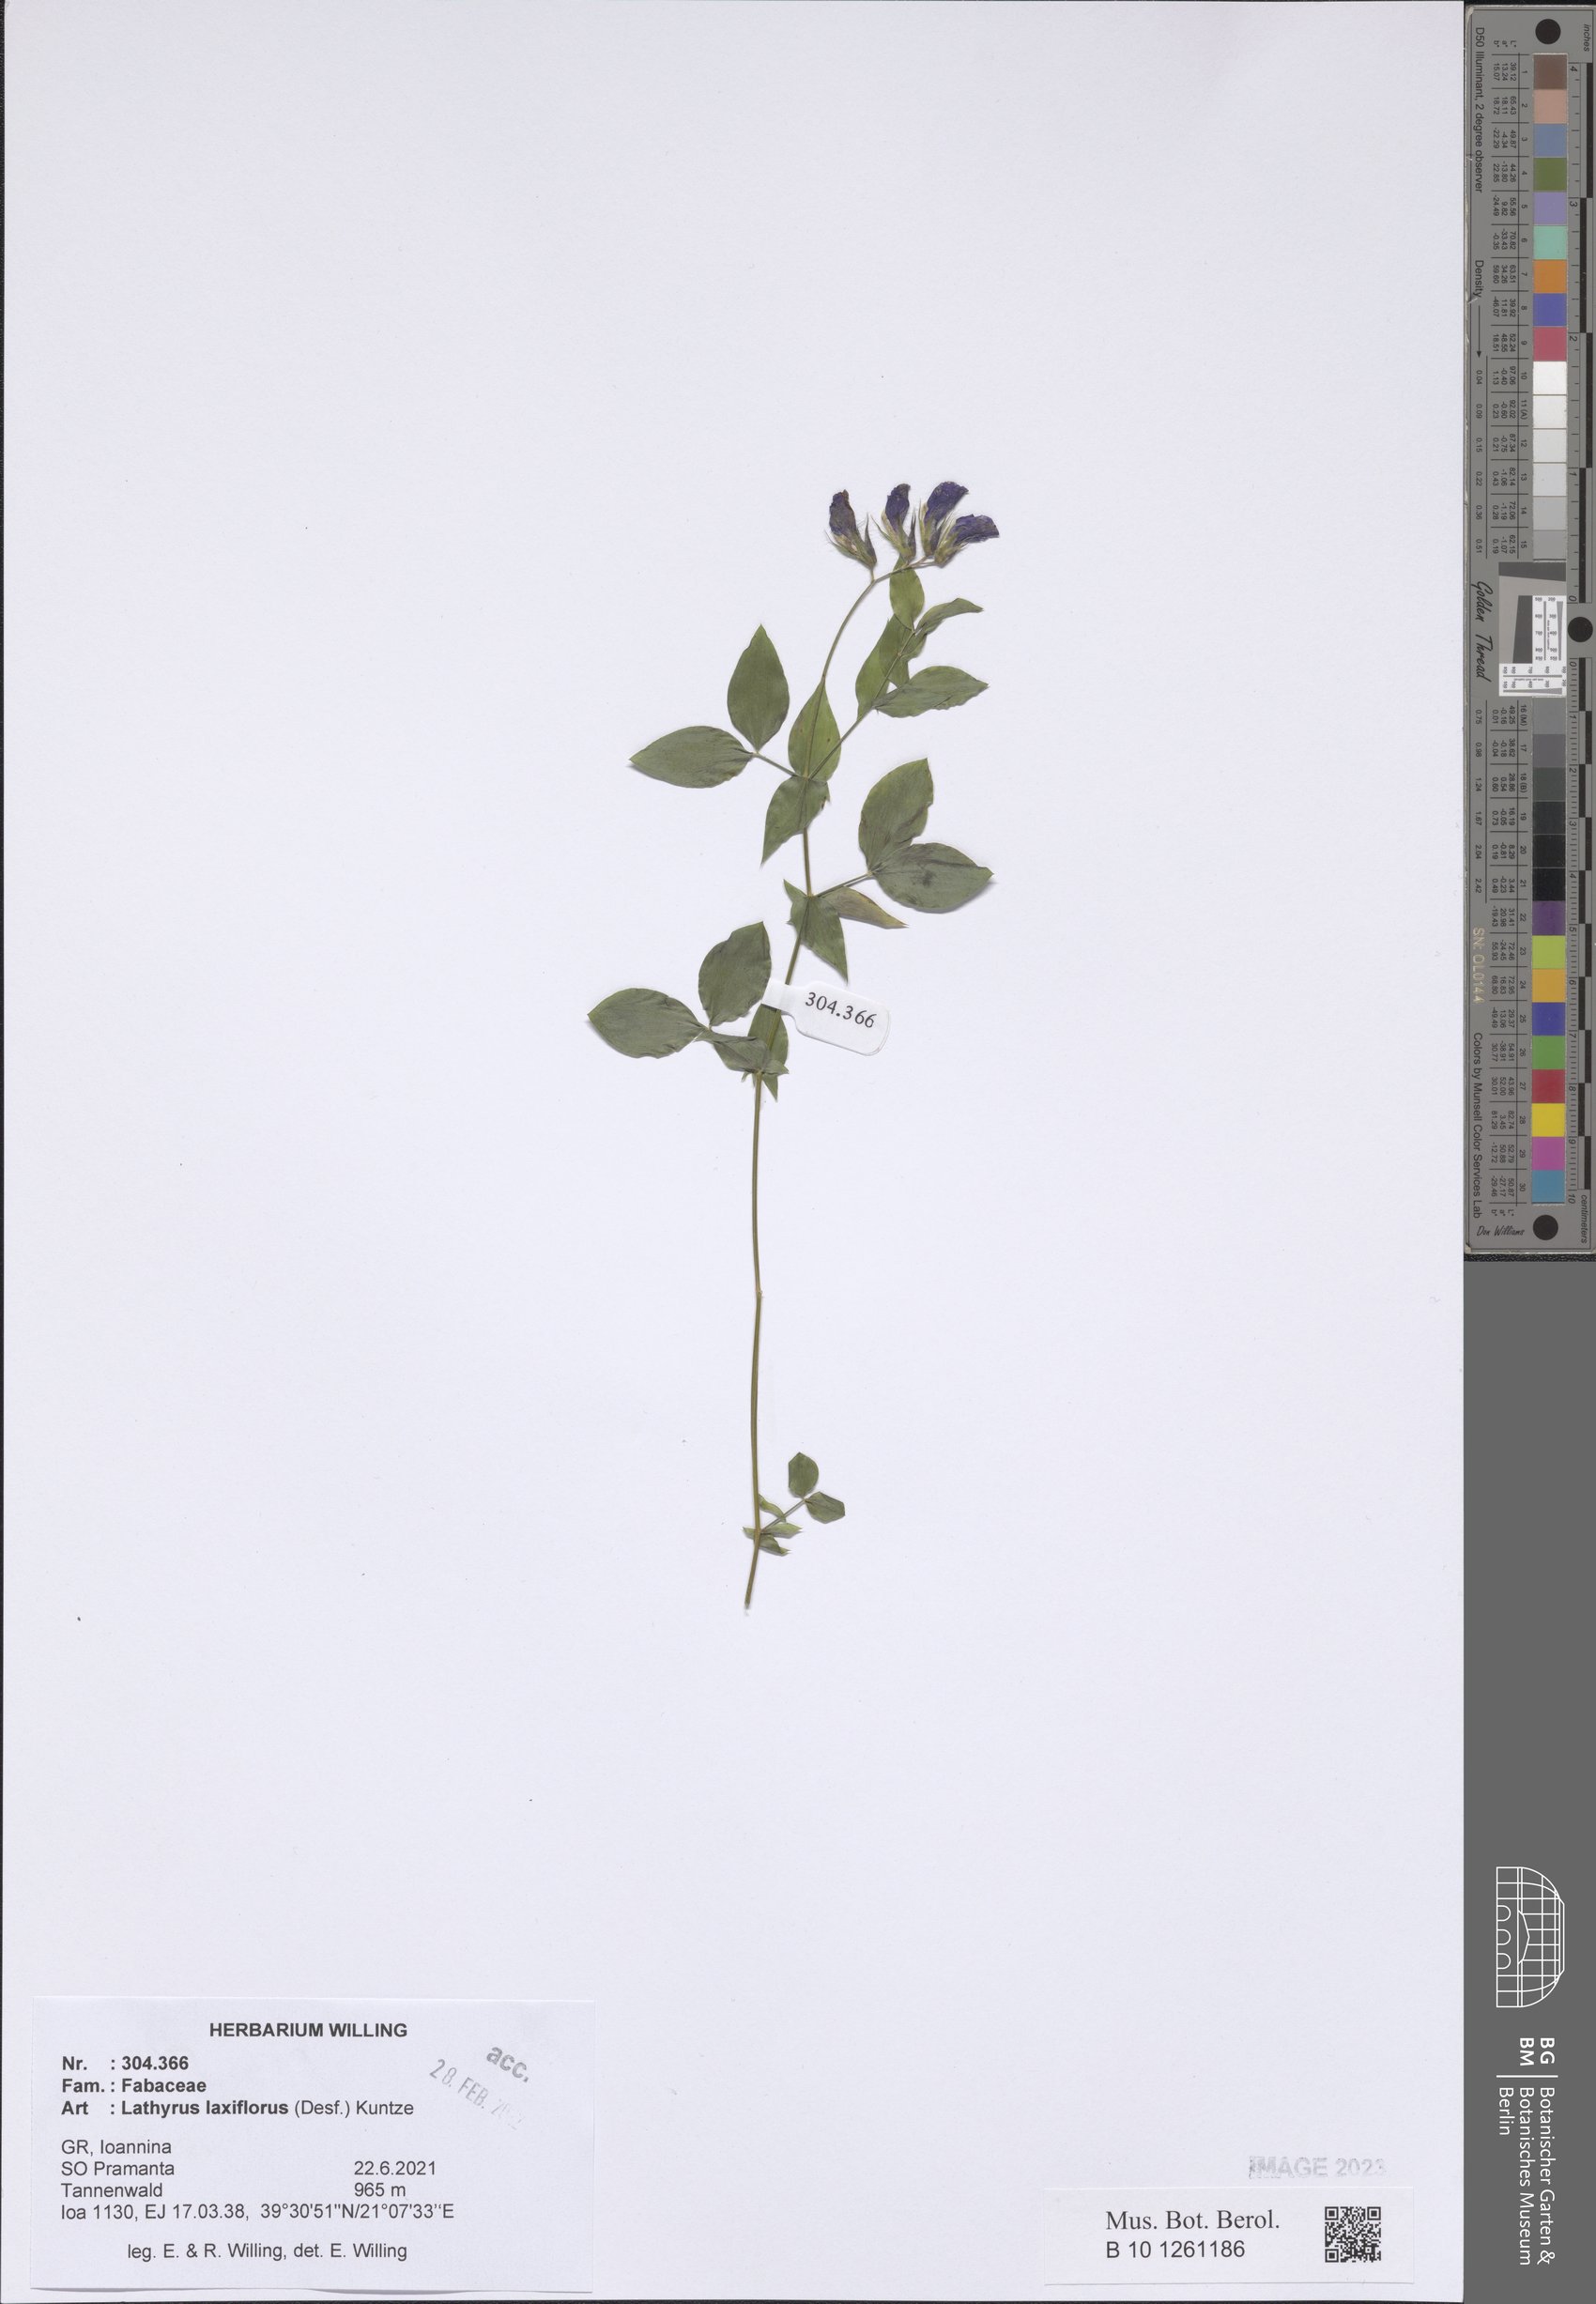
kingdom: Plantae
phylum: Tracheophyta
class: Magnoliopsida
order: Fabales
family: Fabaceae
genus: Lathyrus
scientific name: Lathyrus laxiflorus
